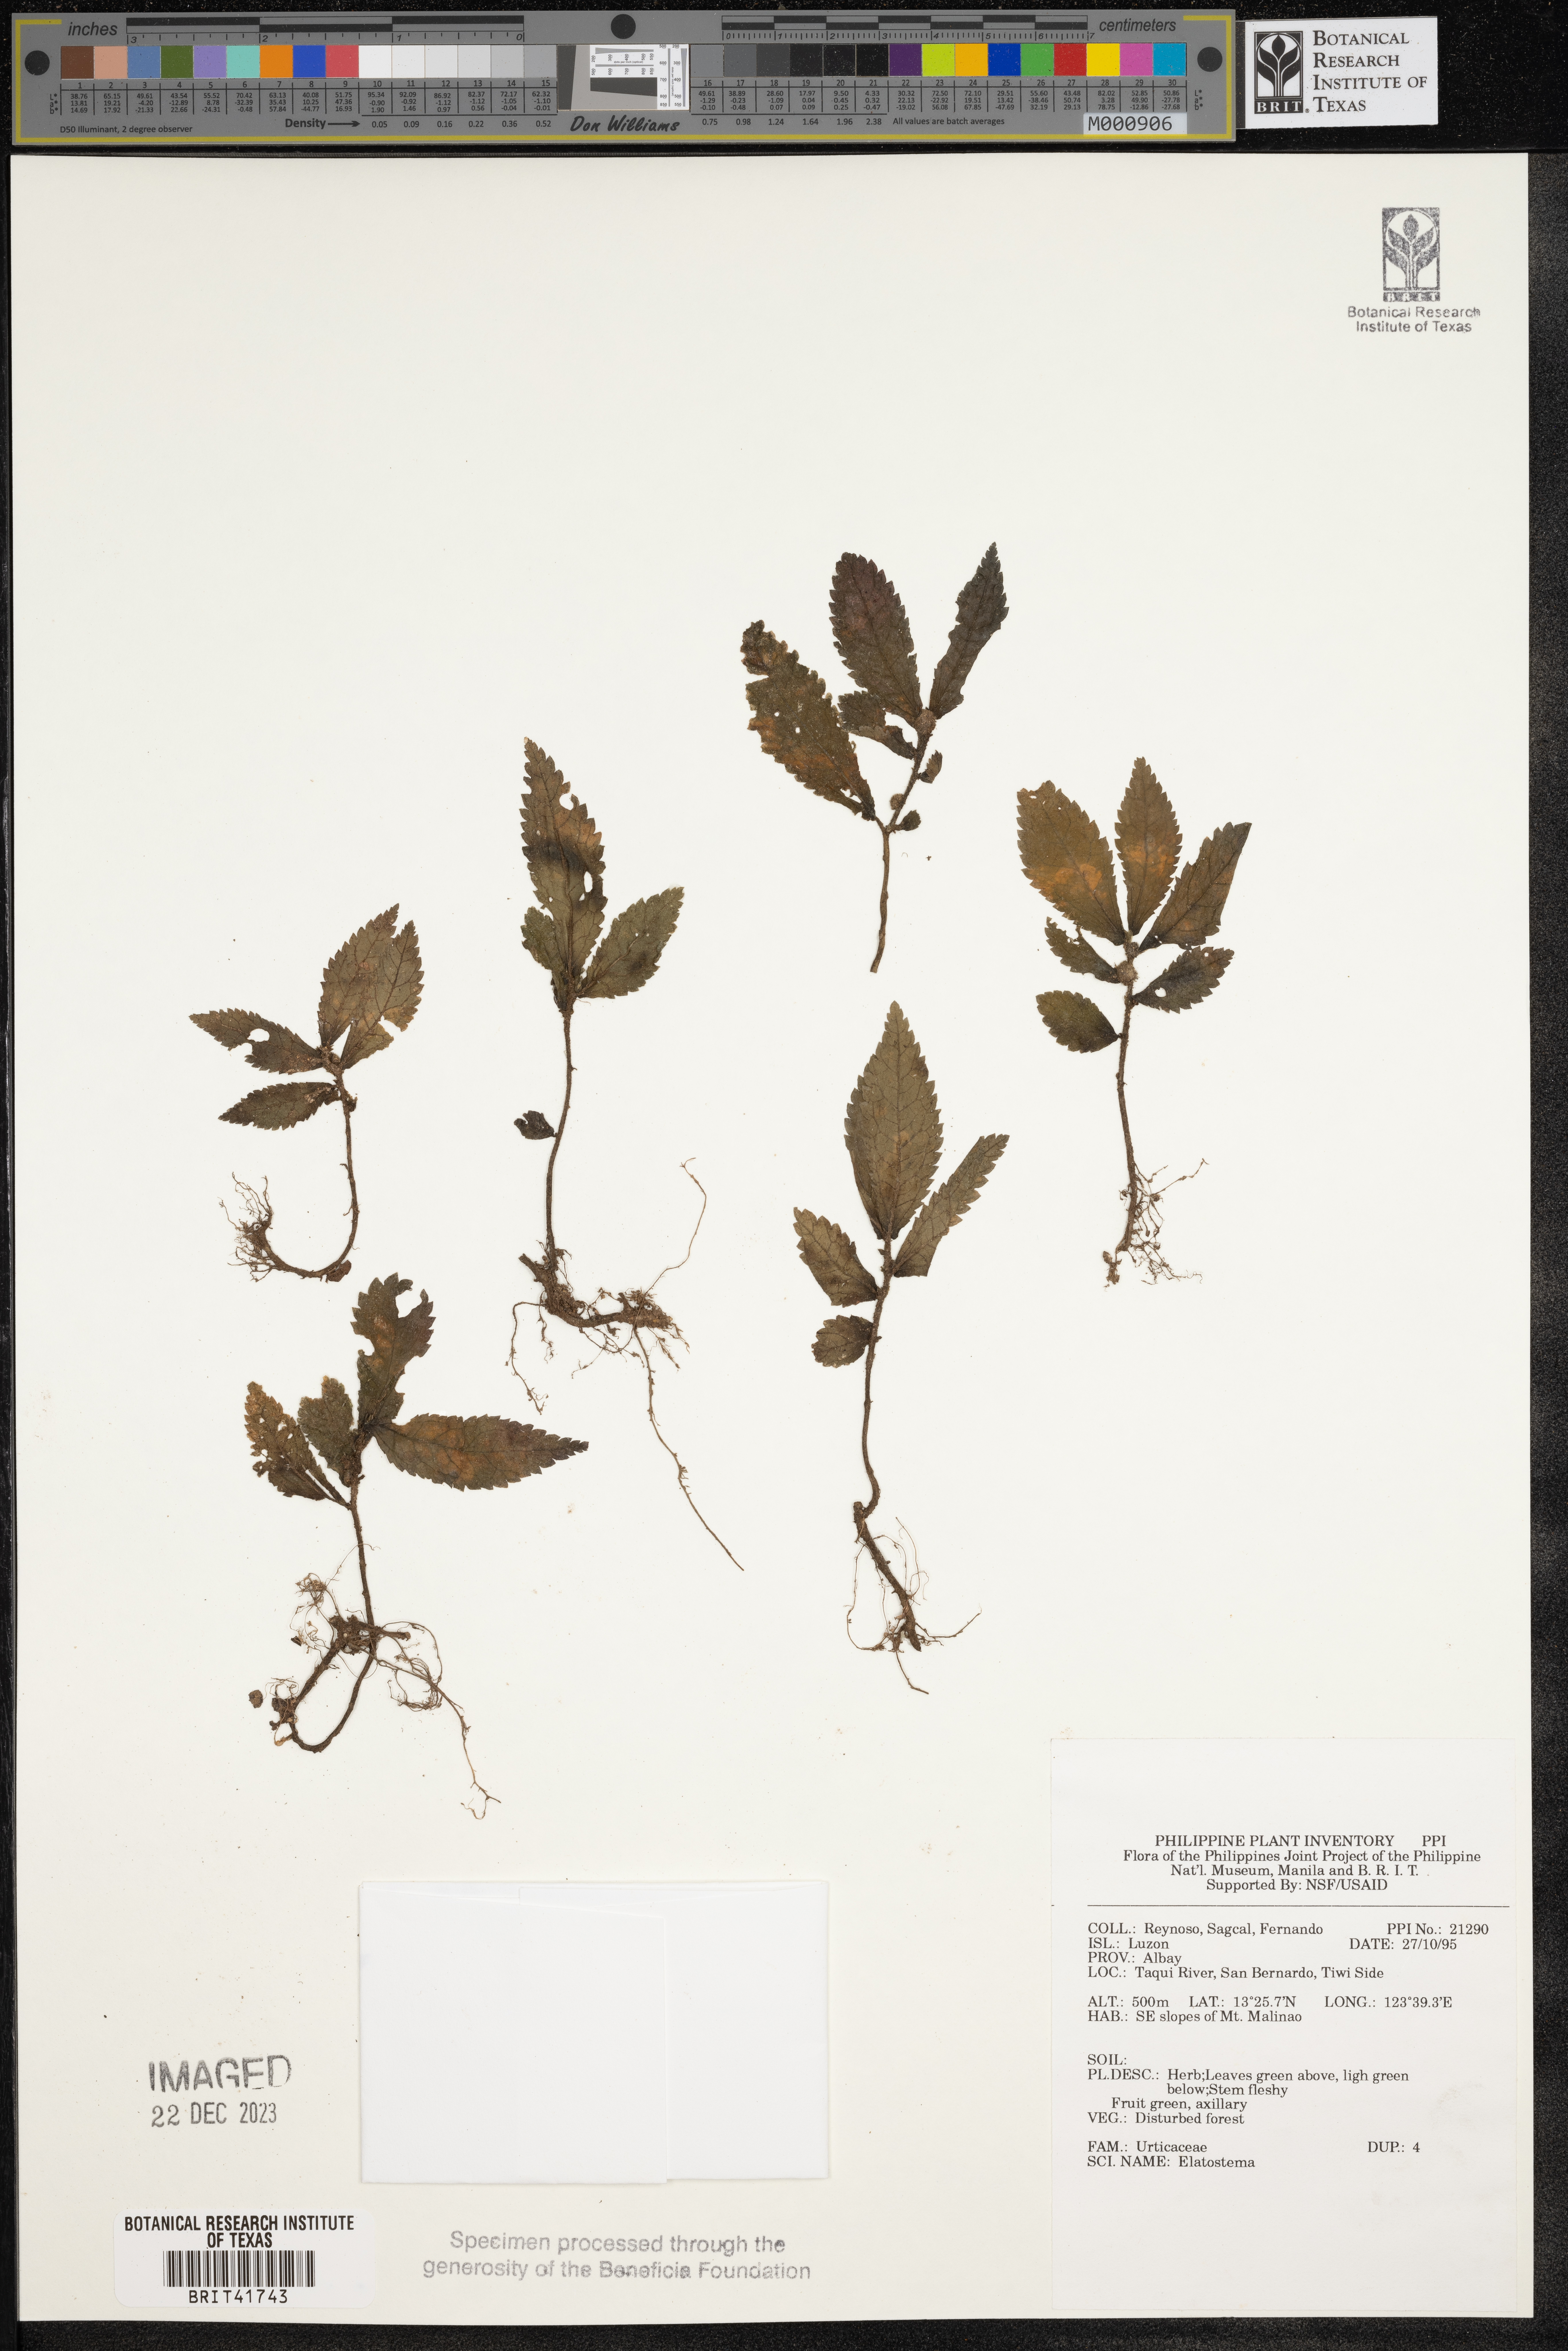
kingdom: Plantae
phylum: Tracheophyta
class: Magnoliopsida
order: Rosales
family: Urticaceae
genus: Elatostema
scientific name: Elatostema
